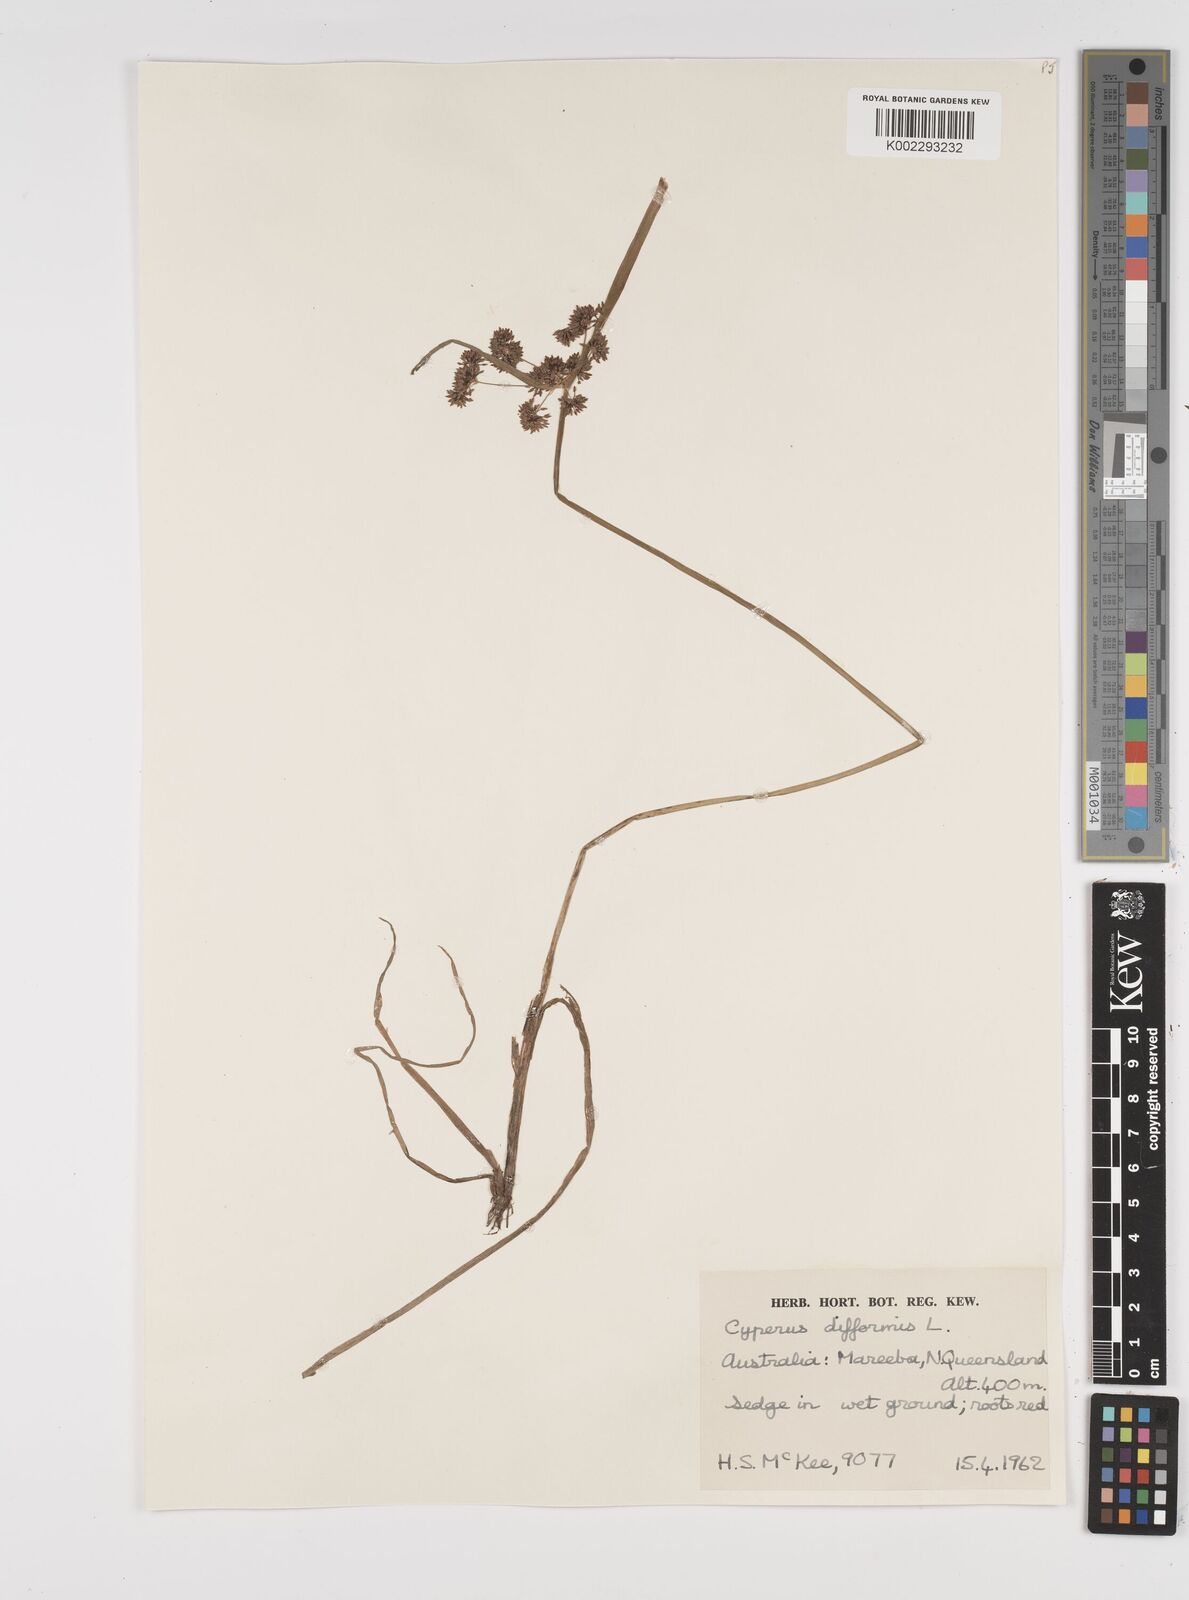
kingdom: Plantae
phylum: Tracheophyta
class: Liliopsida
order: Poales
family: Cyperaceae
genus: Cyperus
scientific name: Cyperus difformis
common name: Variable flatsedge
